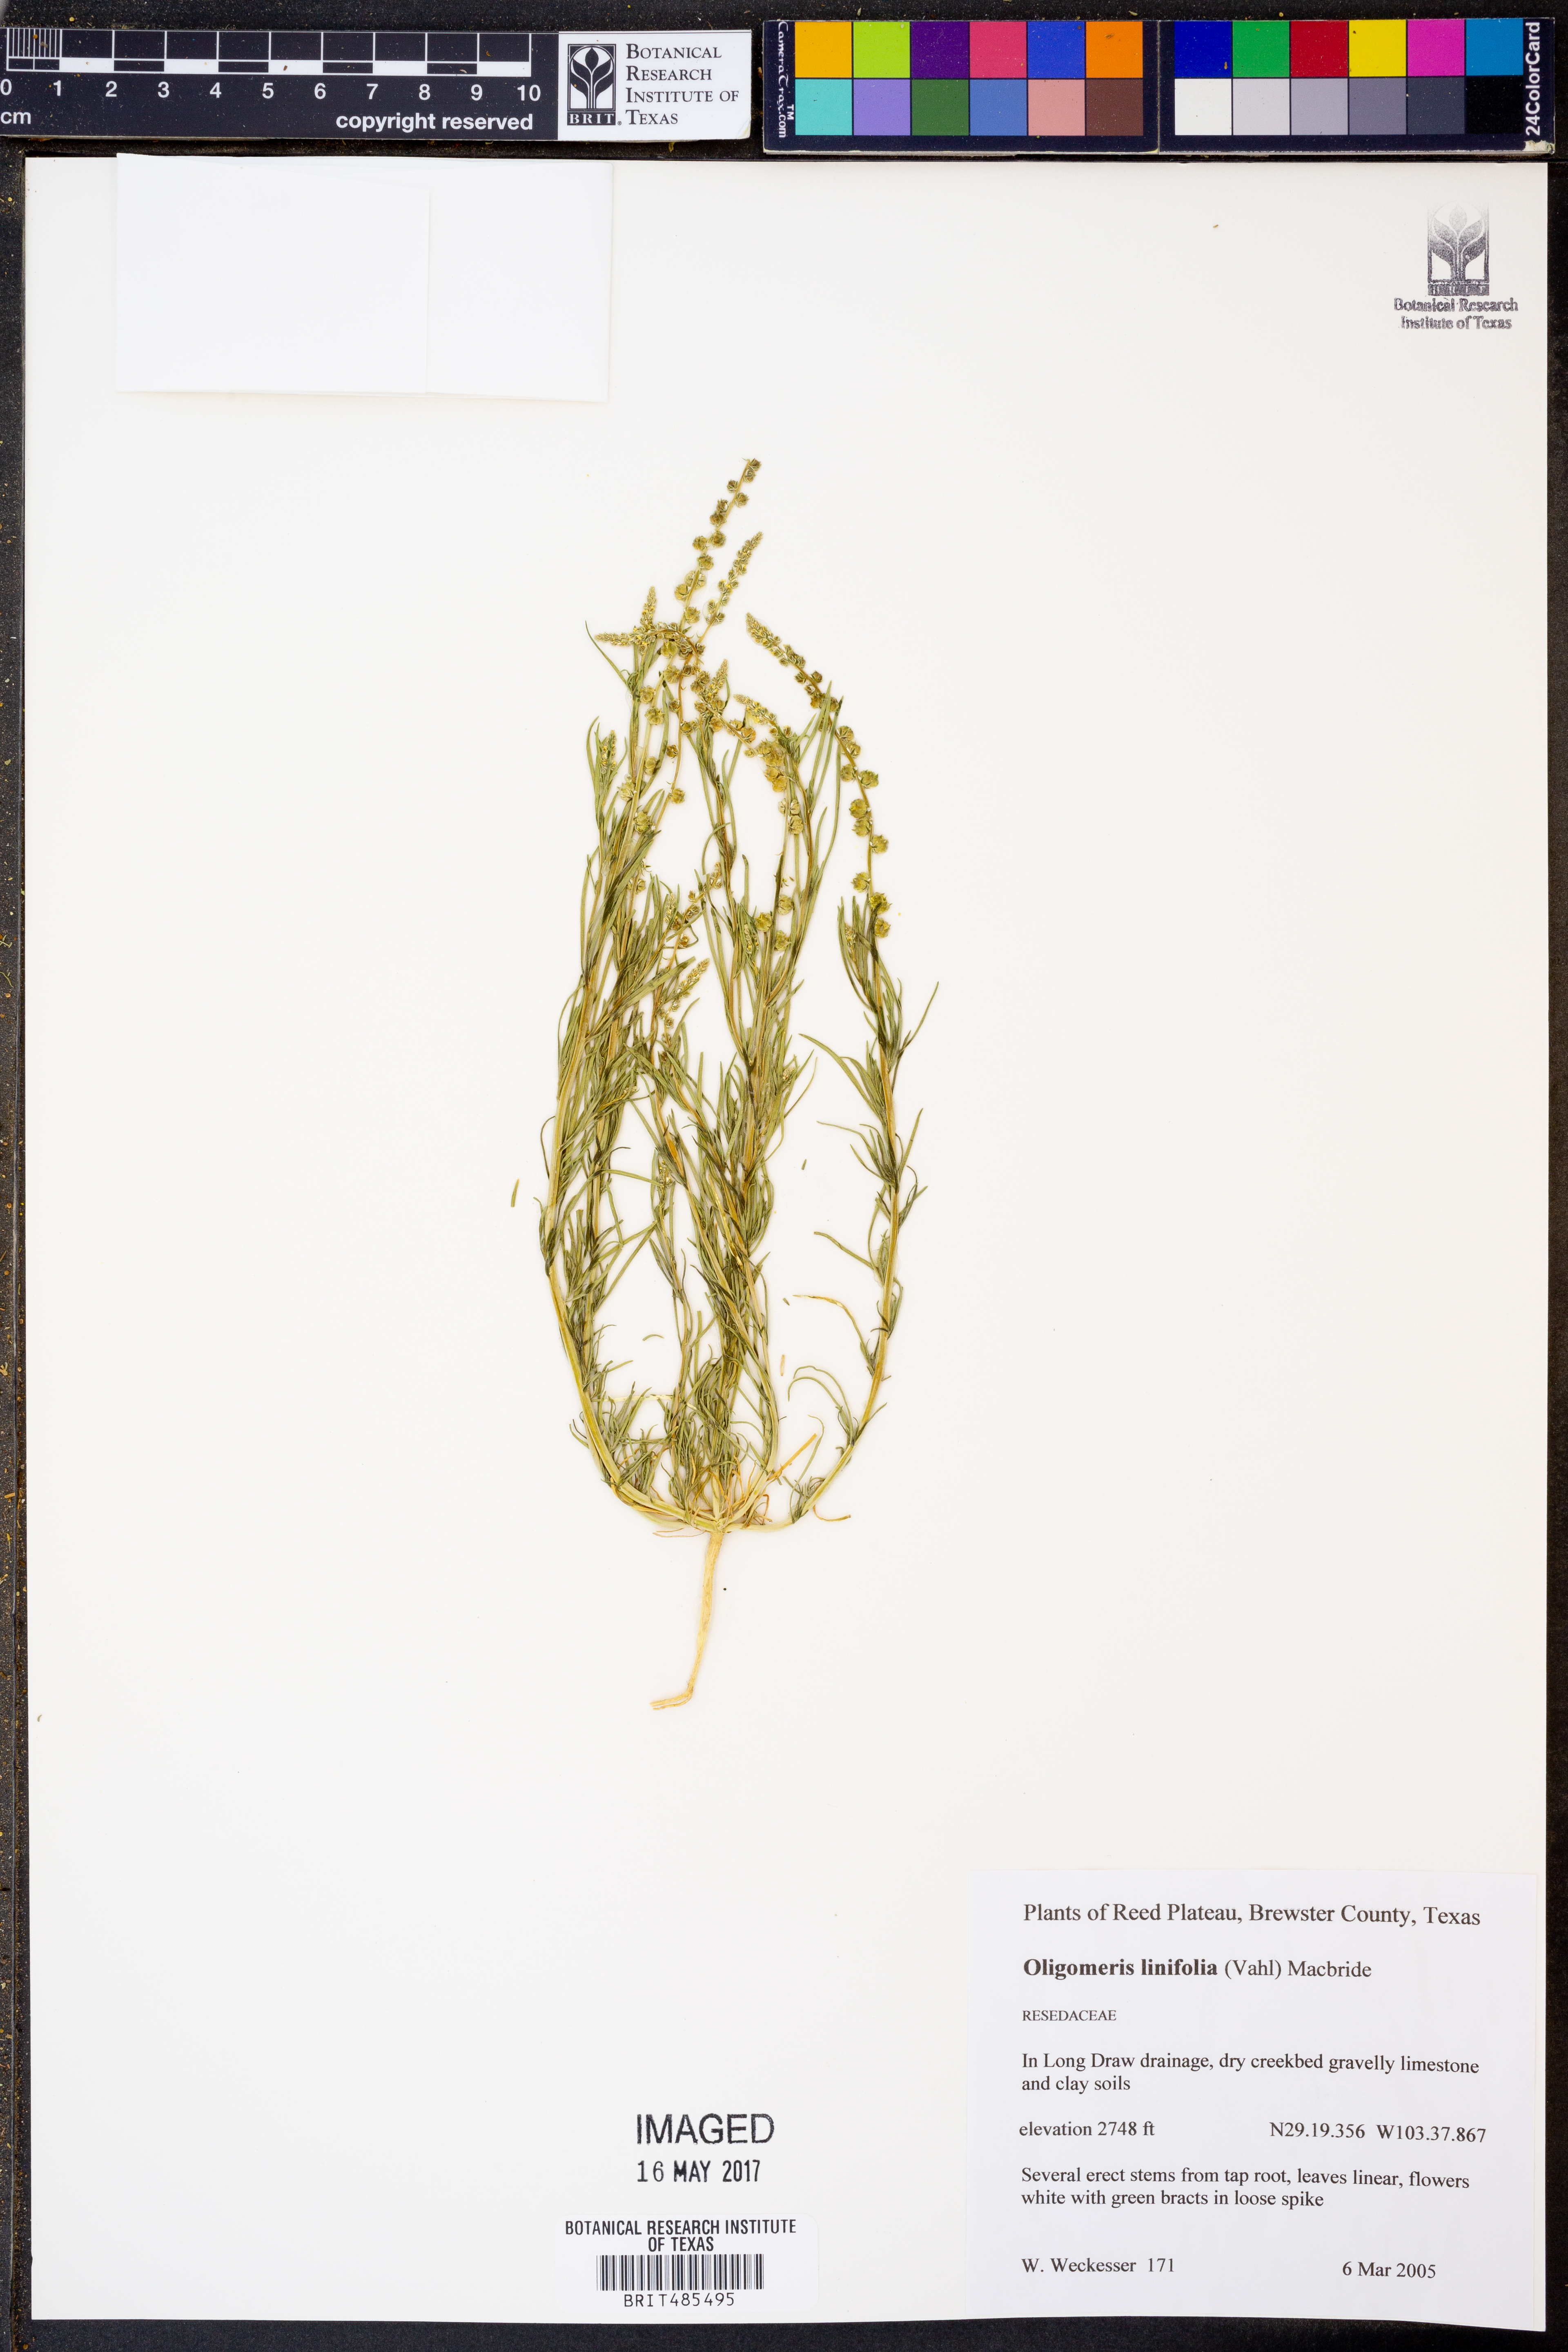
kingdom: Plantae
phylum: Tracheophyta
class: Magnoliopsida
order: Brassicales
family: Resedaceae
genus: Oligomeris
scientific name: Oligomeris linifolia
